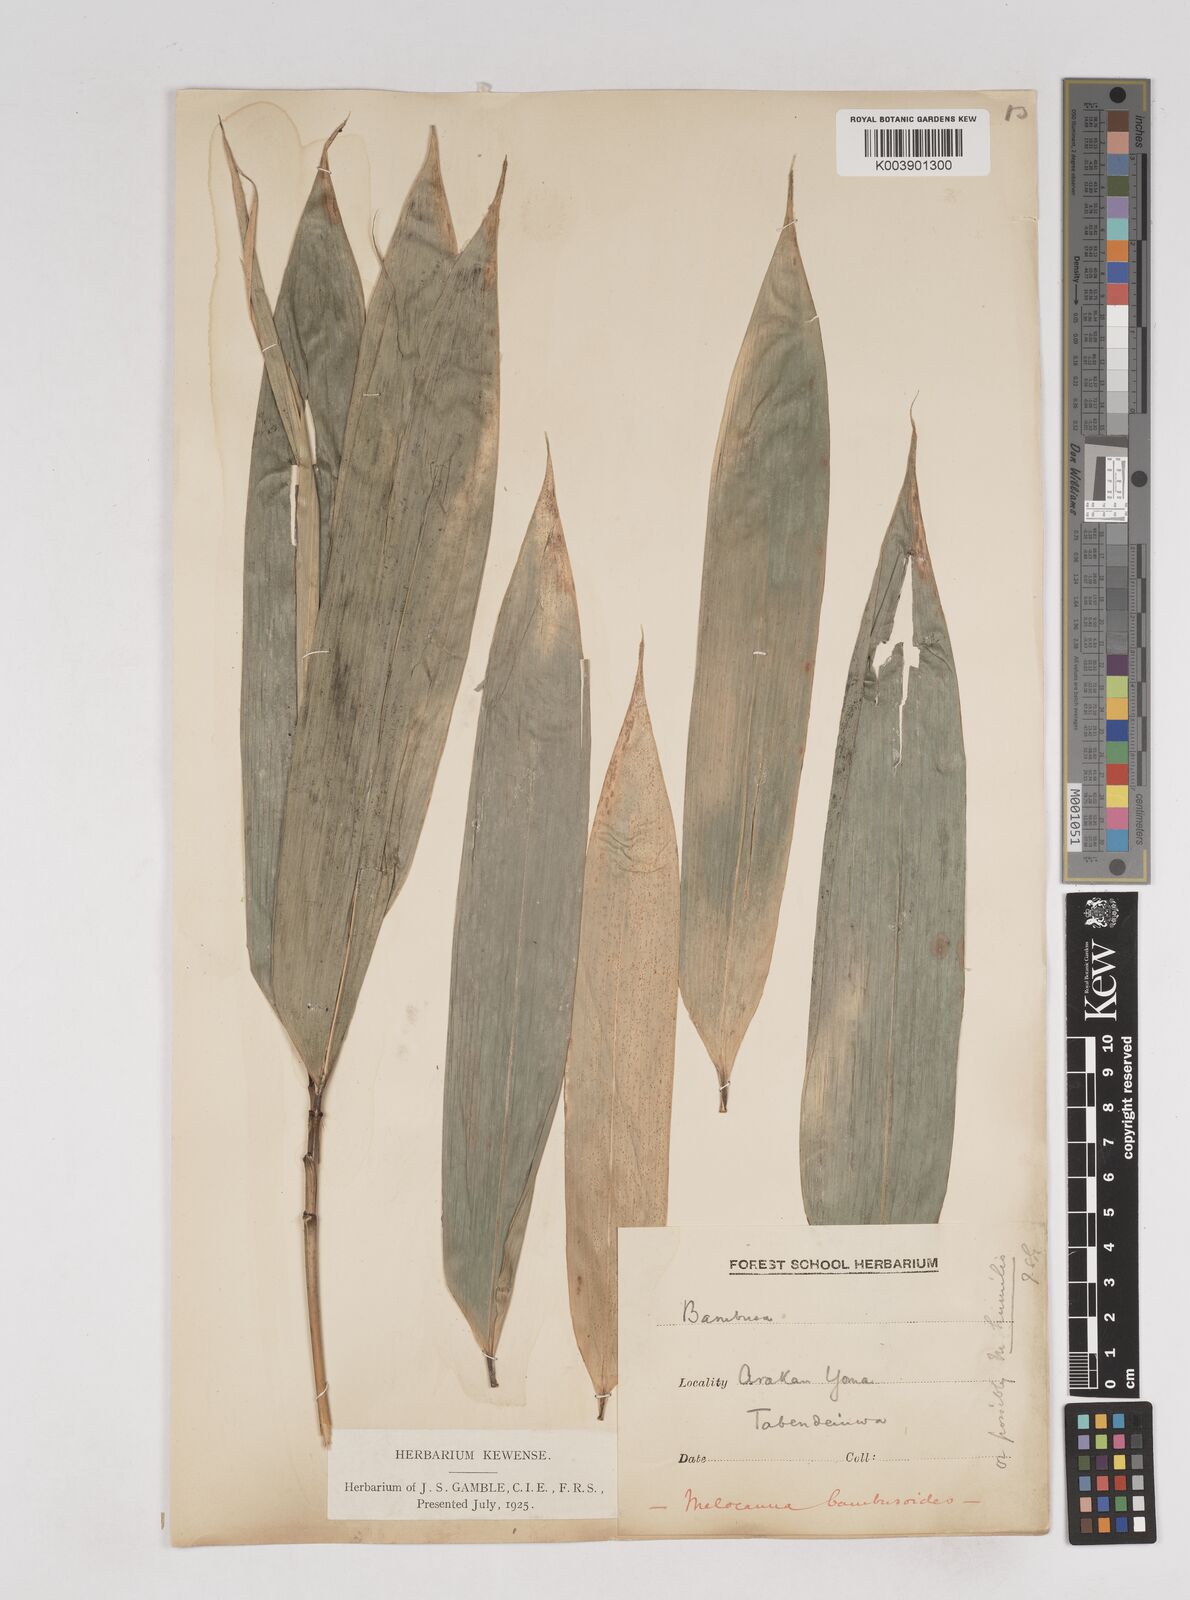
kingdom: Plantae
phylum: Tracheophyta
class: Liliopsida
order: Poales
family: Poaceae
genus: Melocanna
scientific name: Melocanna arundina
